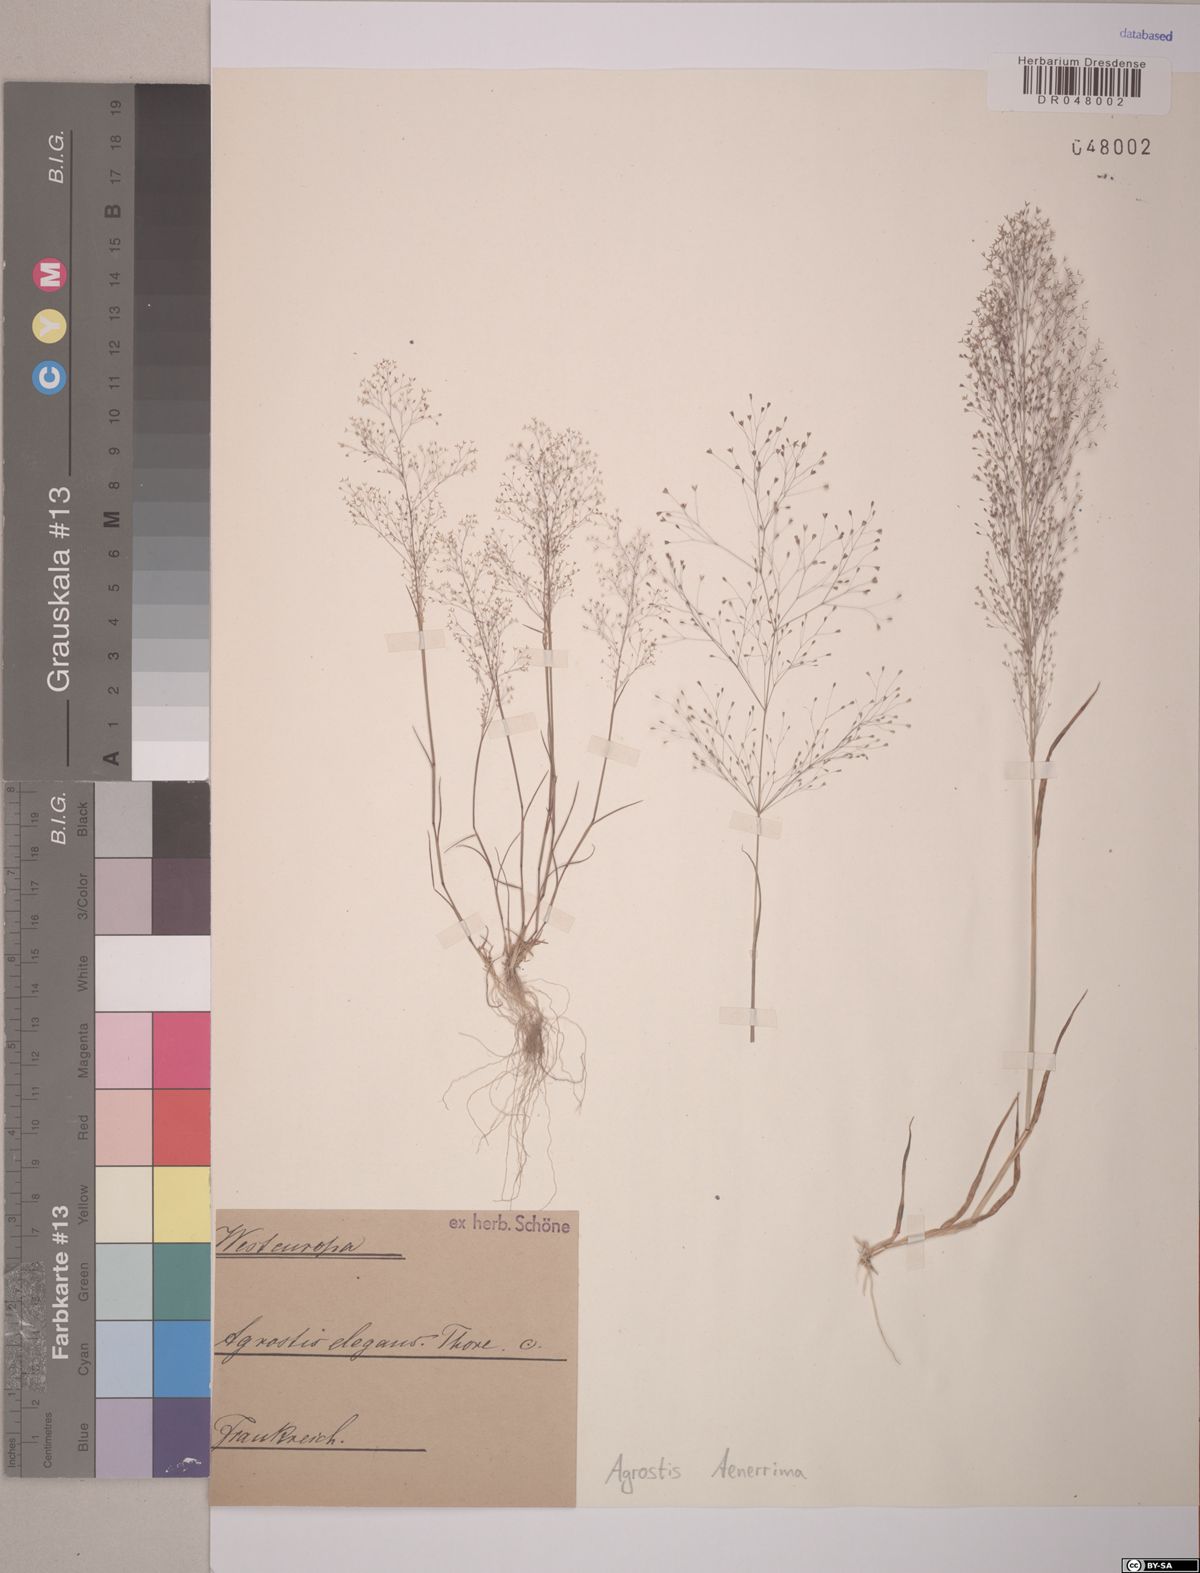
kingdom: Plantae
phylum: Tracheophyta
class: Liliopsida
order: Poales
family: Poaceae
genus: Agrostis
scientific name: Agrostis tenerrima
